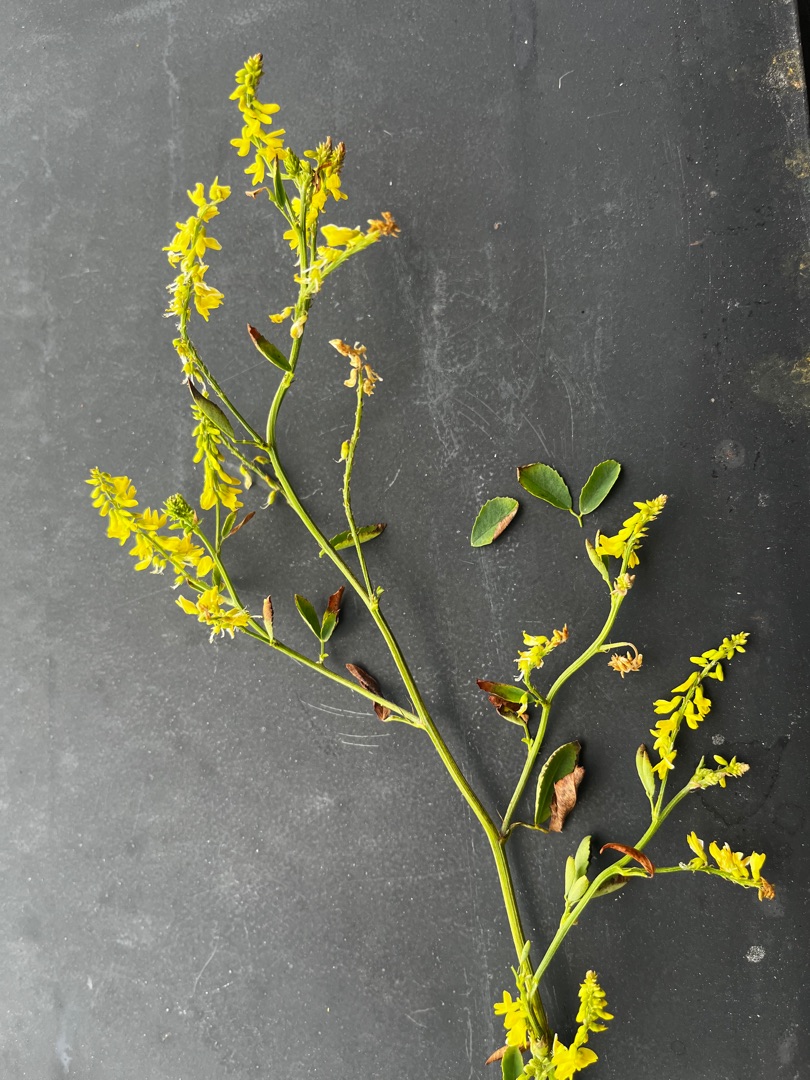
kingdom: Plantae
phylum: Tracheophyta
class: Magnoliopsida
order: Fabales
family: Fabaceae
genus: Melilotus
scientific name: Melilotus officinalis
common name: Mark-stenkløver
